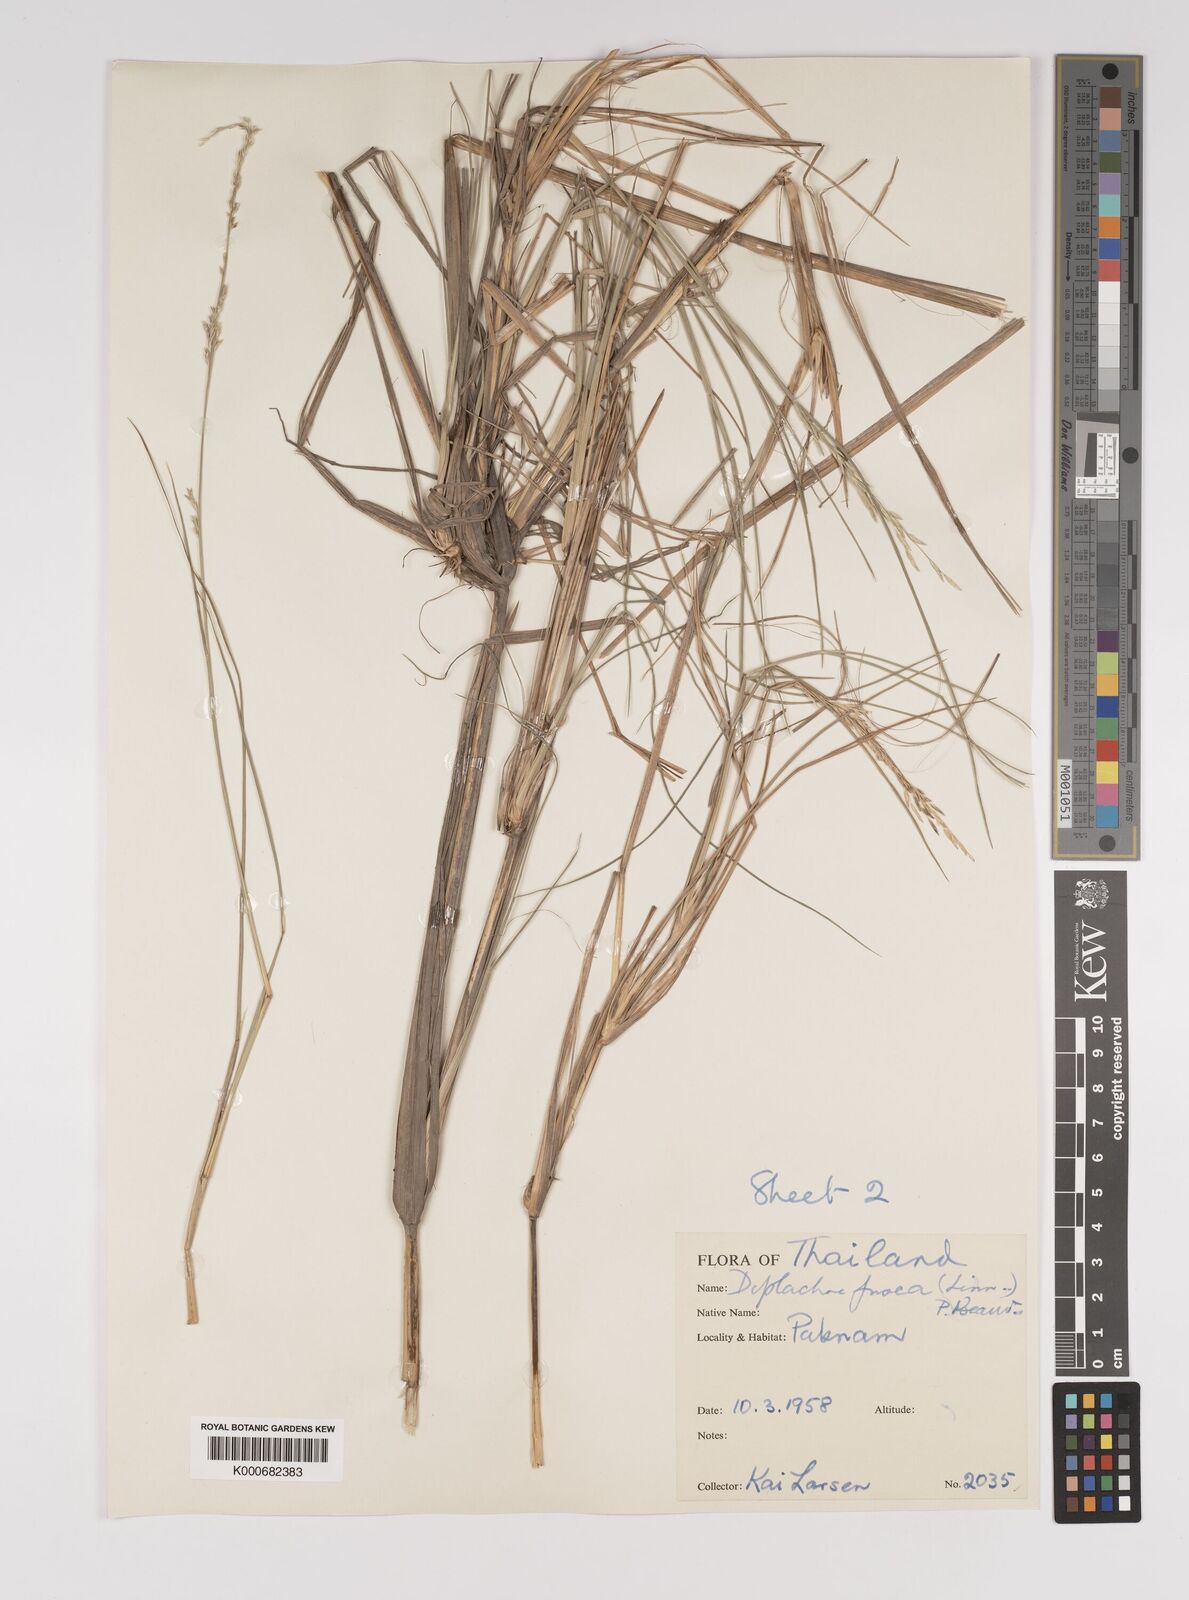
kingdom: Plantae
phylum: Tracheophyta
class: Liliopsida
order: Poales
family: Poaceae
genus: Diplachne
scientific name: Diplachne fusca
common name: Brown beetle grass
